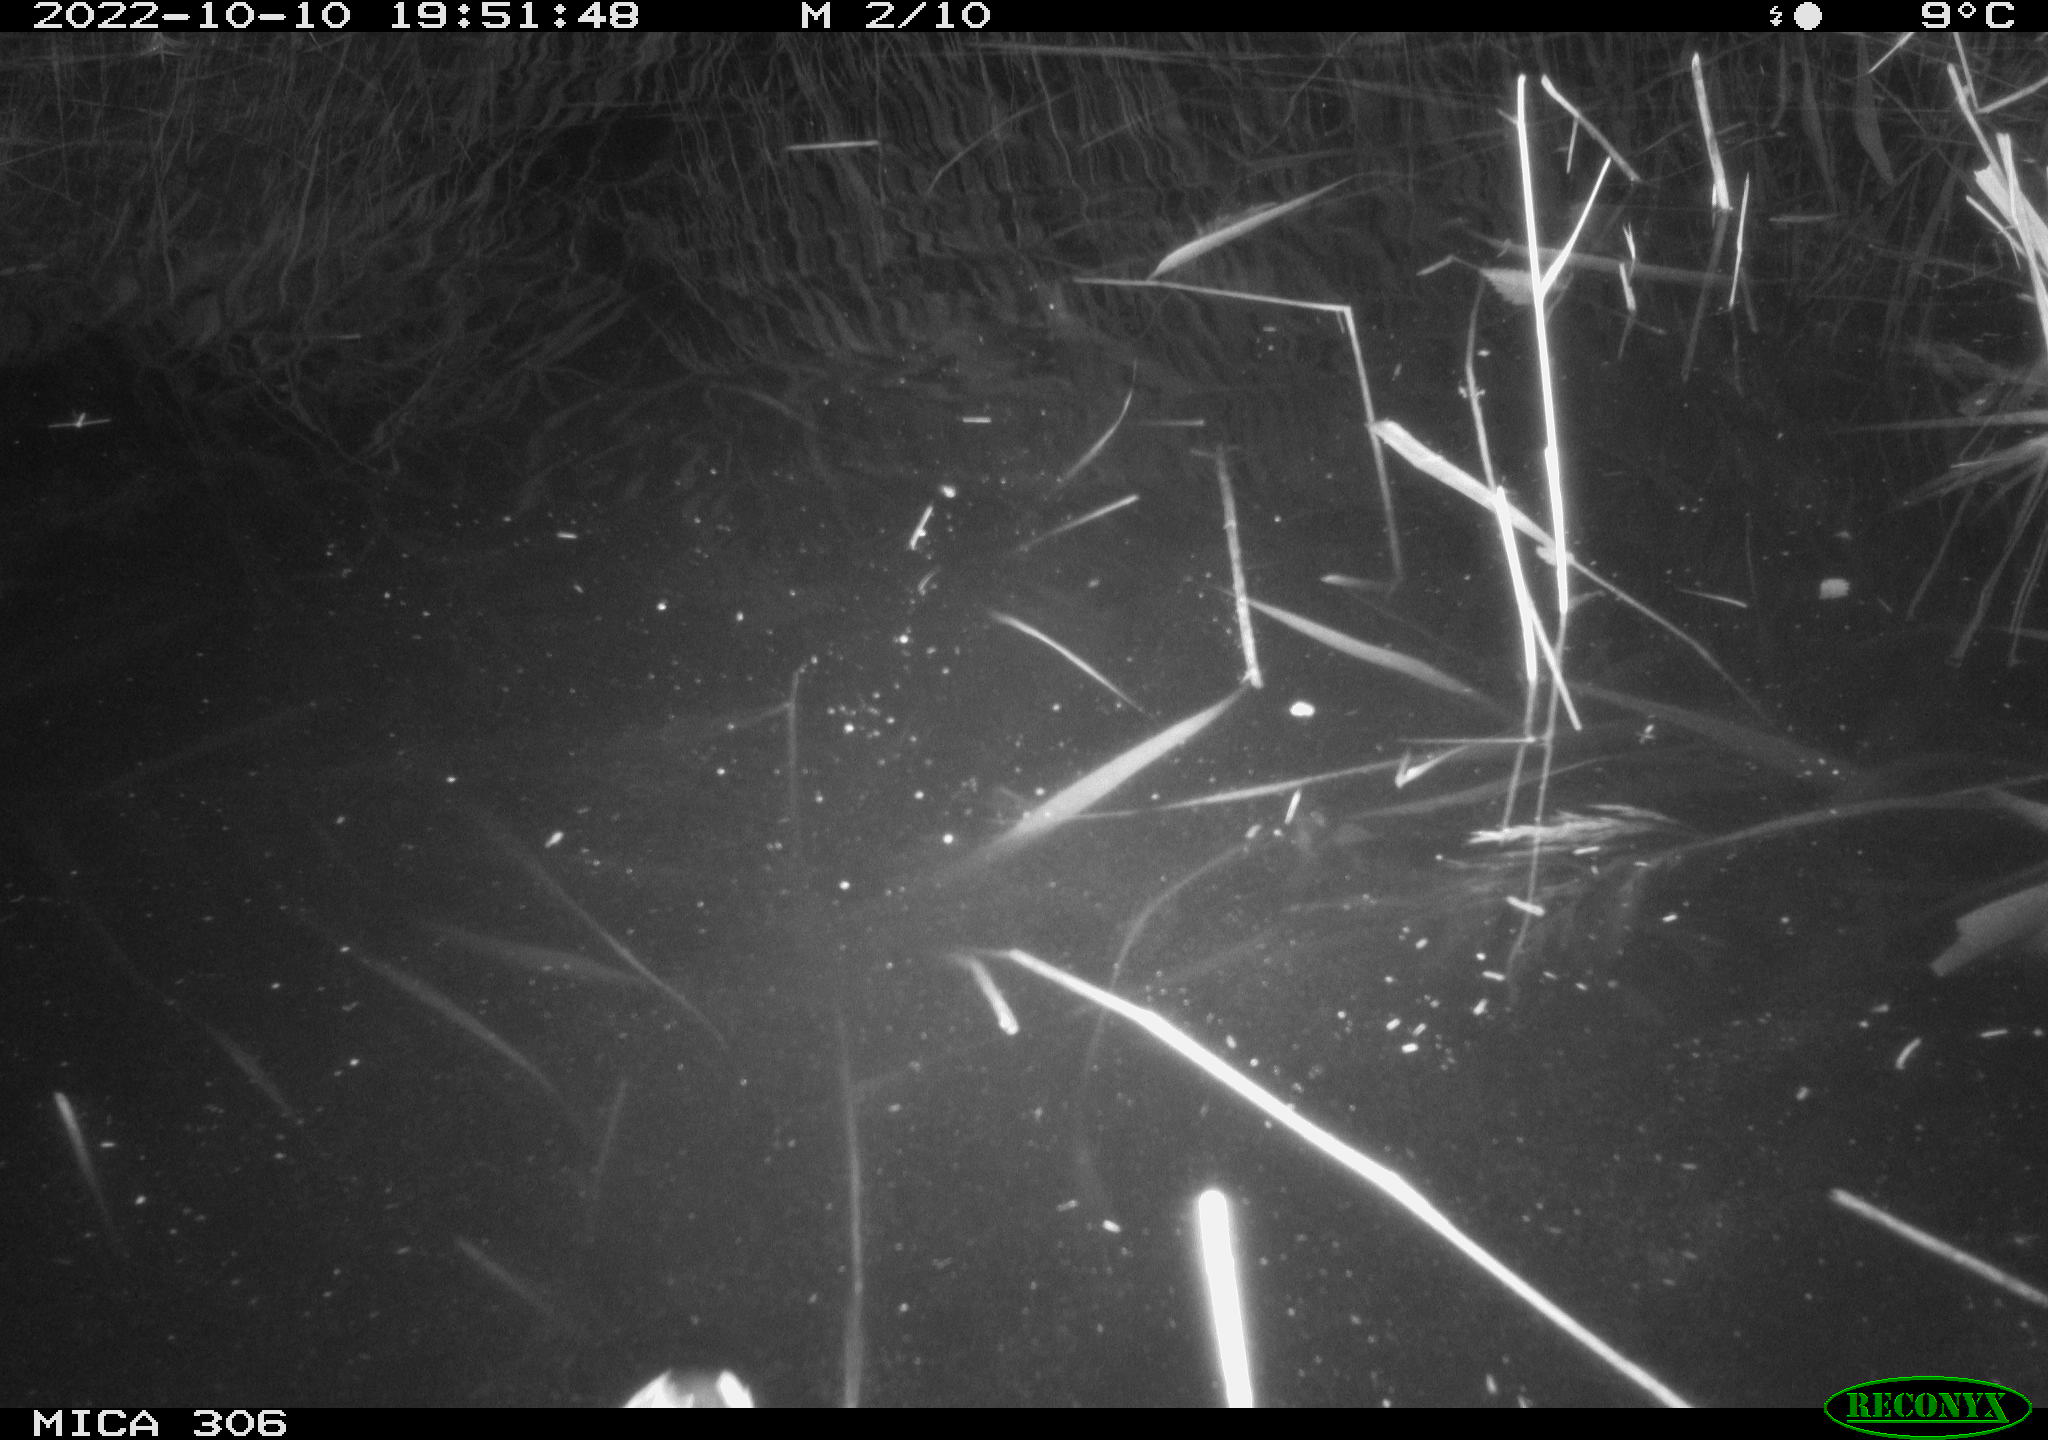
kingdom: Animalia
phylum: Chordata
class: Aves
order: Gruiformes
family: Rallidae
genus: Gallinula
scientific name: Gallinula chloropus
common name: Common moorhen
